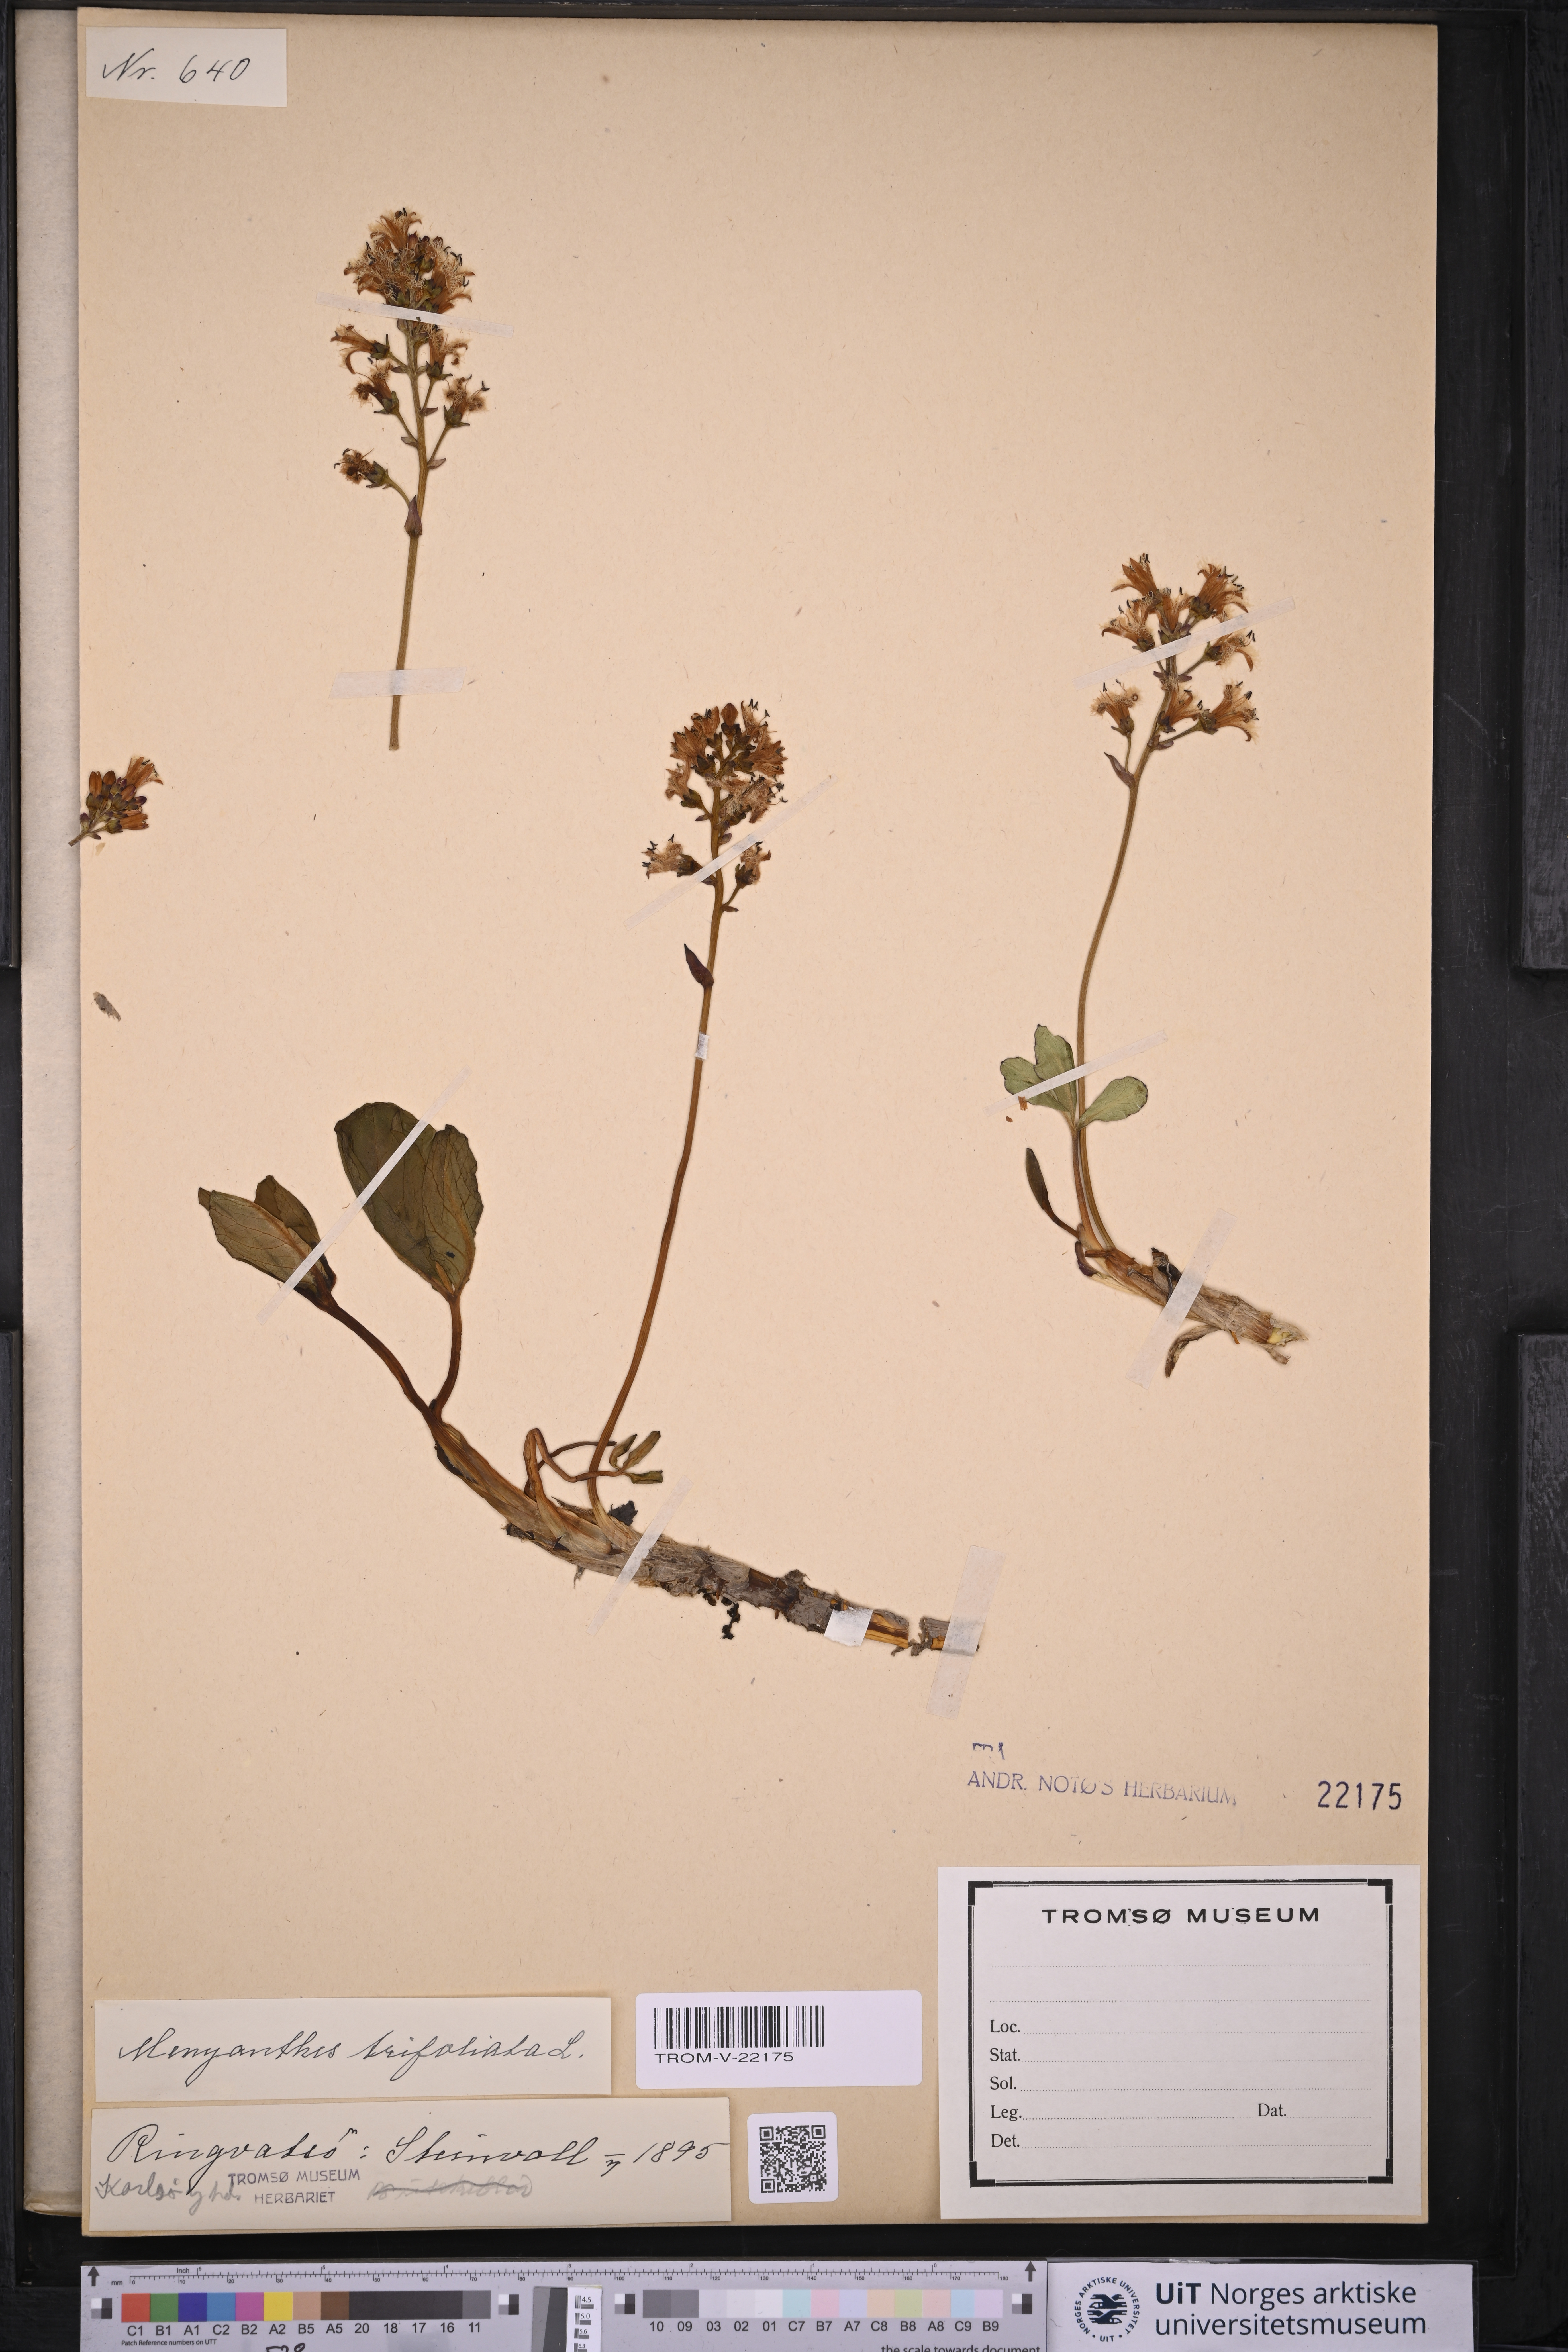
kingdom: Plantae
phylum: Tracheophyta
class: Magnoliopsida
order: Asterales
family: Menyanthaceae
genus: Menyanthes
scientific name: Menyanthes trifoliata
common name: Bogbean
